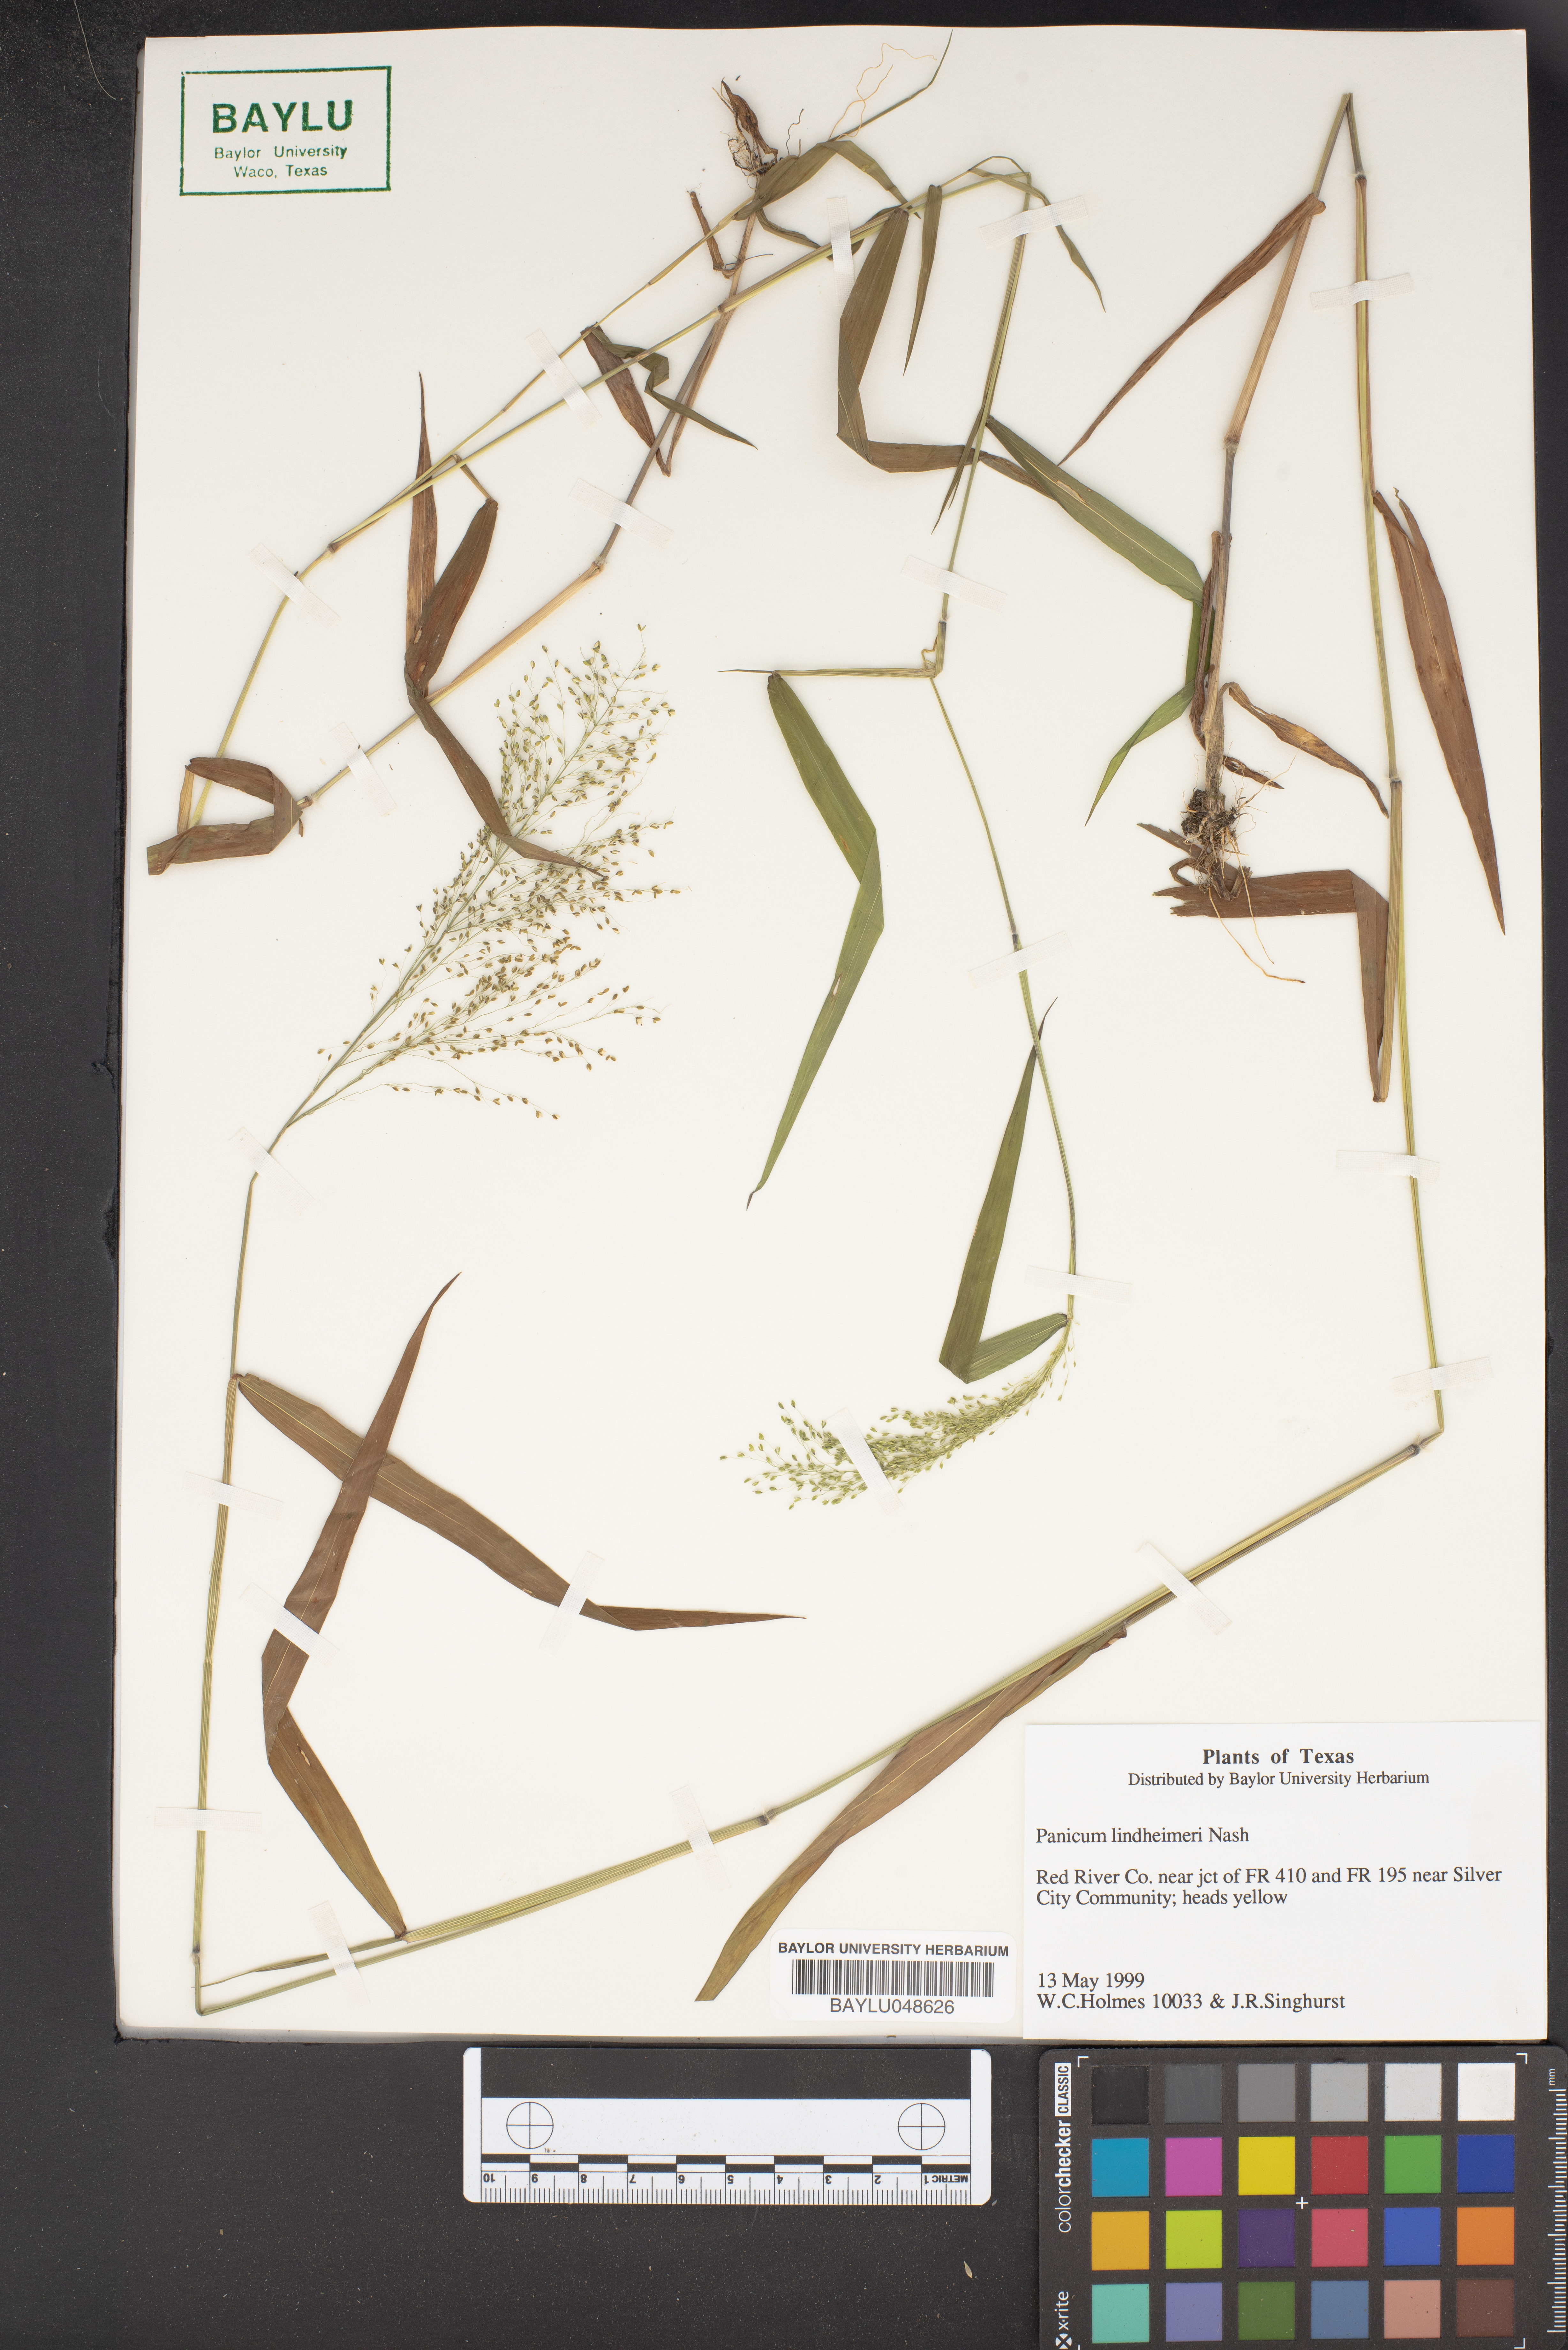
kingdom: Plantae
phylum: Tracheophyta
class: Liliopsida
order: Poales
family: Poaceae
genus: Dichanthelium
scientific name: Dichanthelium lindheimeri
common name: Lindheimer's panicgrass
